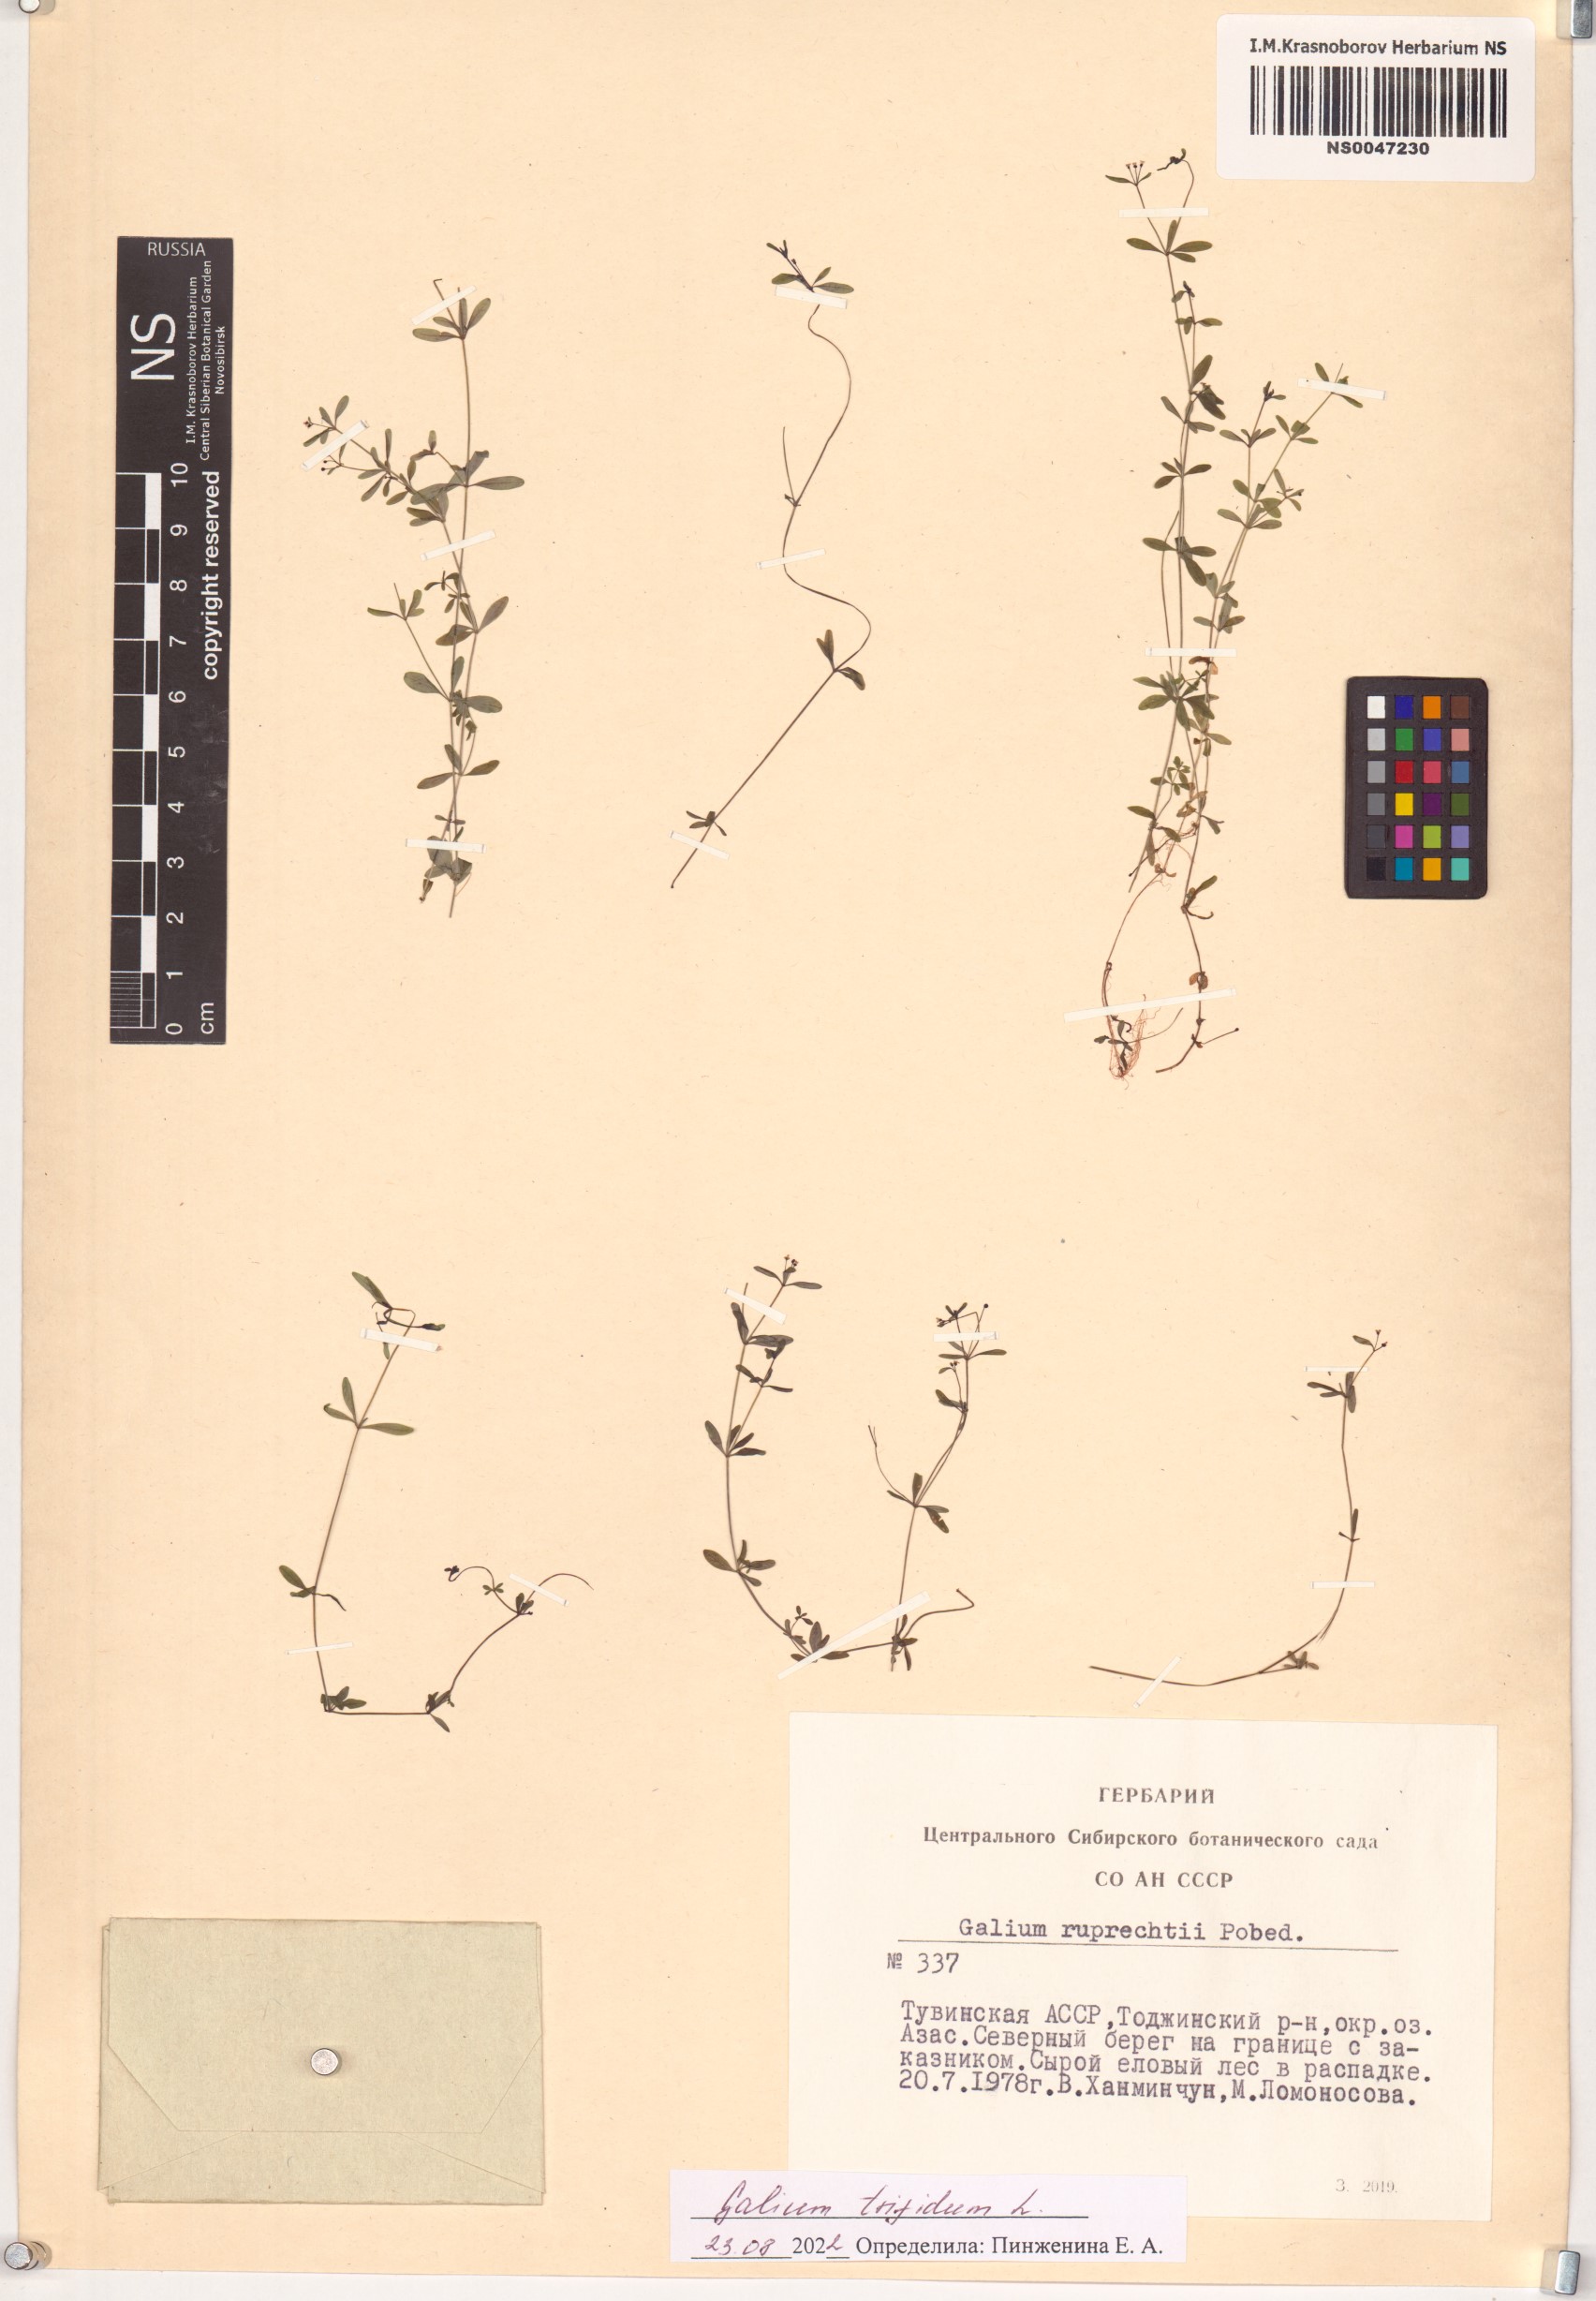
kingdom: Plantae
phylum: Tracheophyta
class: Magnoliopsida
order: Gentianales
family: Rubiaceae
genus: Galium
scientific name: Galium trifidum
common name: Small bedstraw
